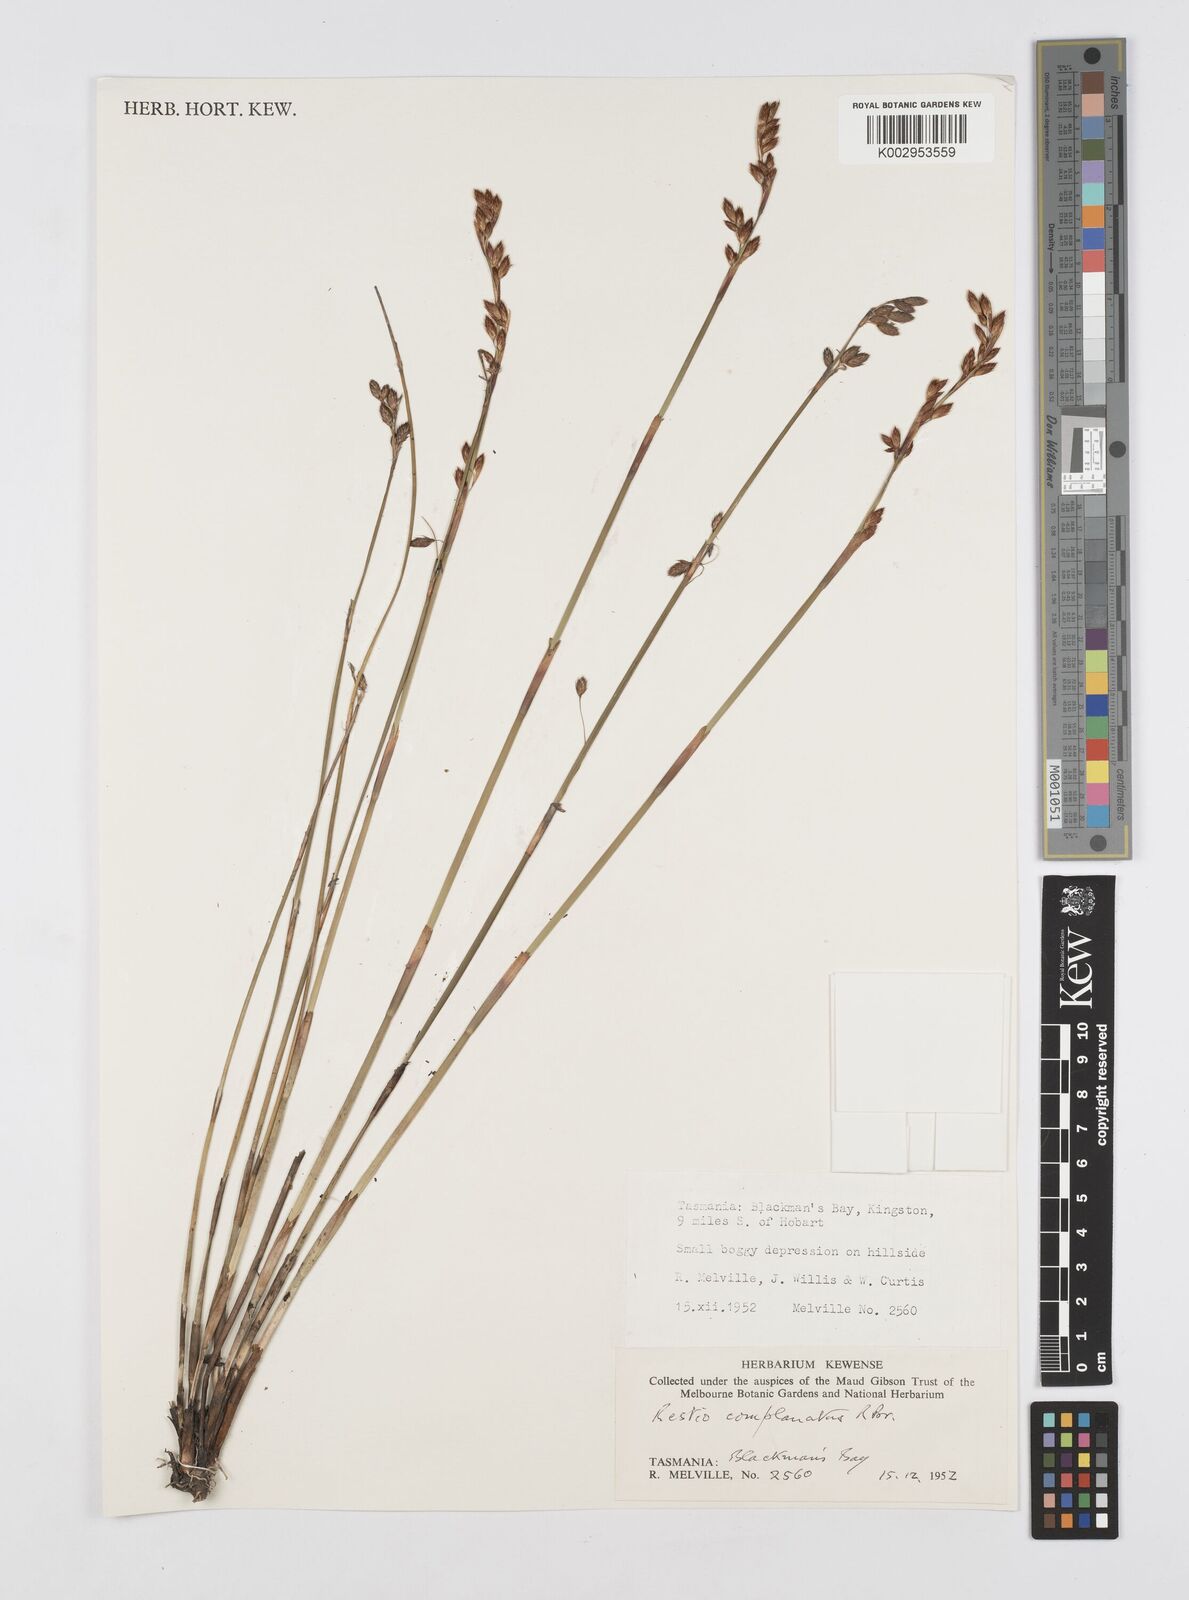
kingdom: Plantae
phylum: Tracheophyta
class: Liliopsida
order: Poales
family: Restionaceae
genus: Eurychorda
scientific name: Eurychorda complanata
